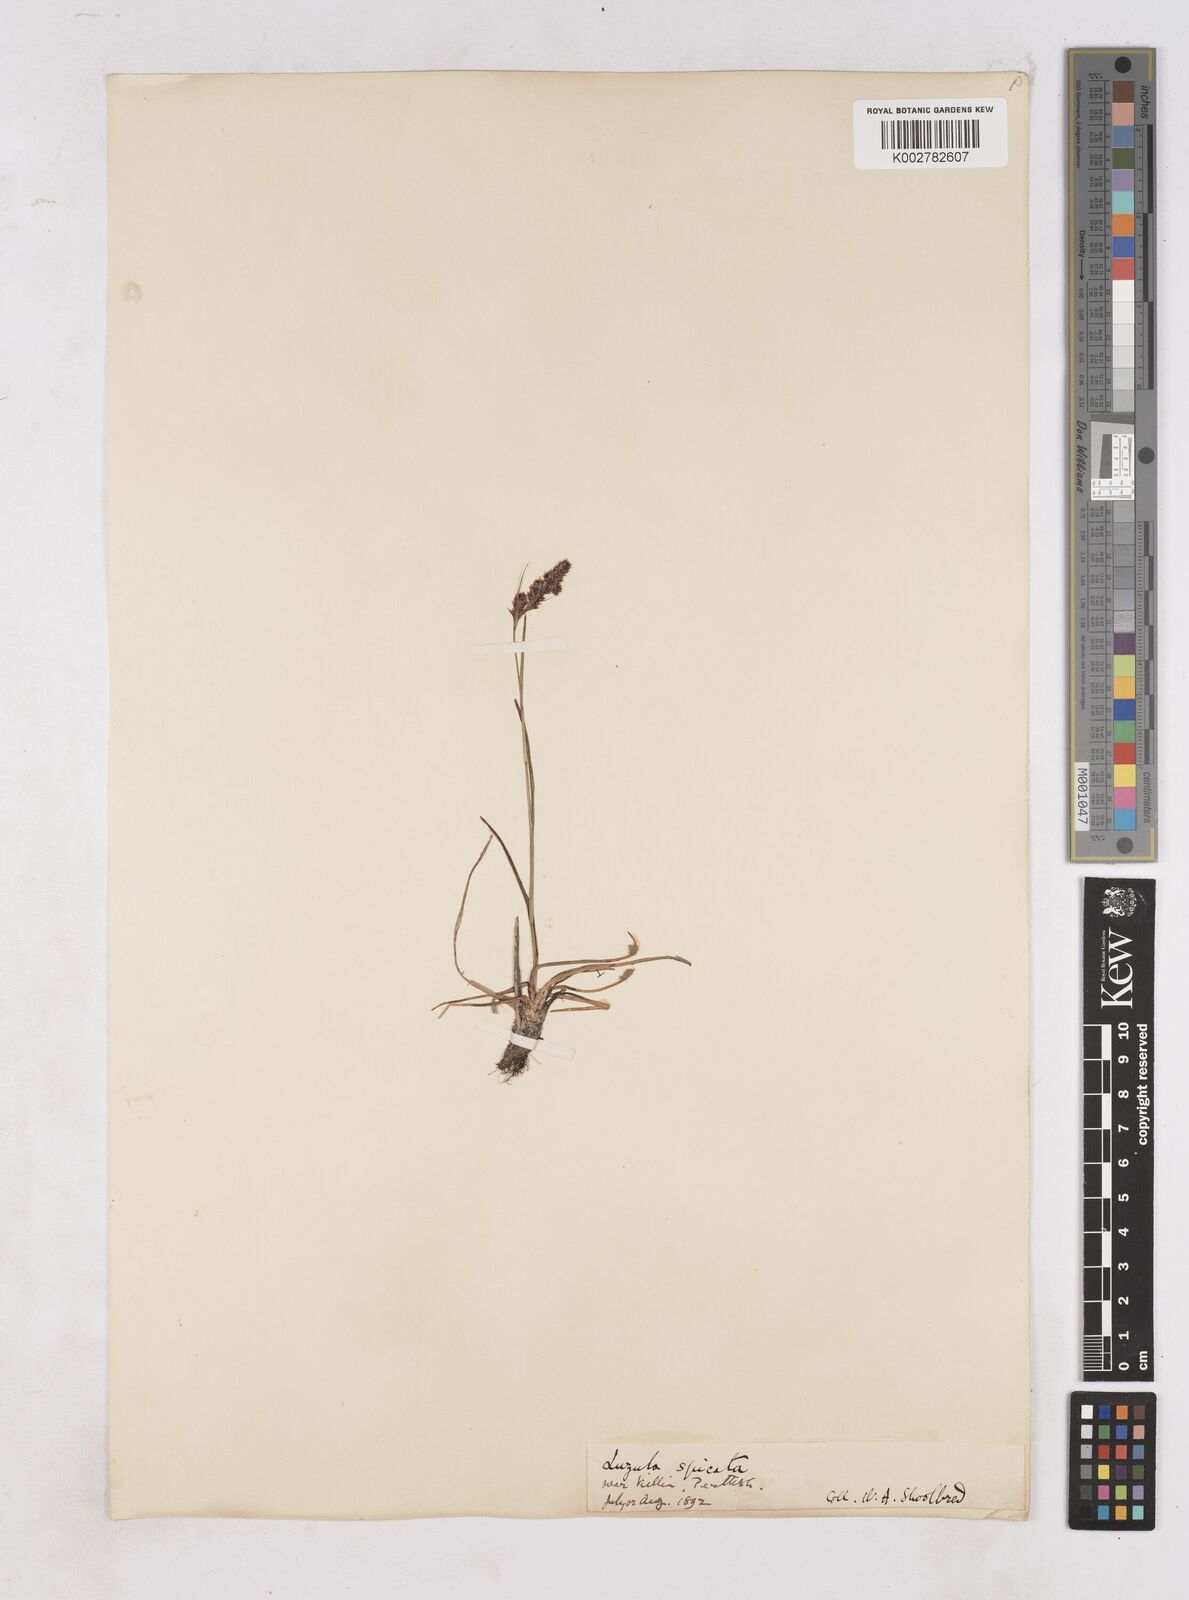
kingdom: Plantae
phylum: Tracheophyta
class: Liliopsida
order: Poales
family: Juncaceae
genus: Luzula
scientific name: Luzula spicata
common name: Spiked wood-rush
